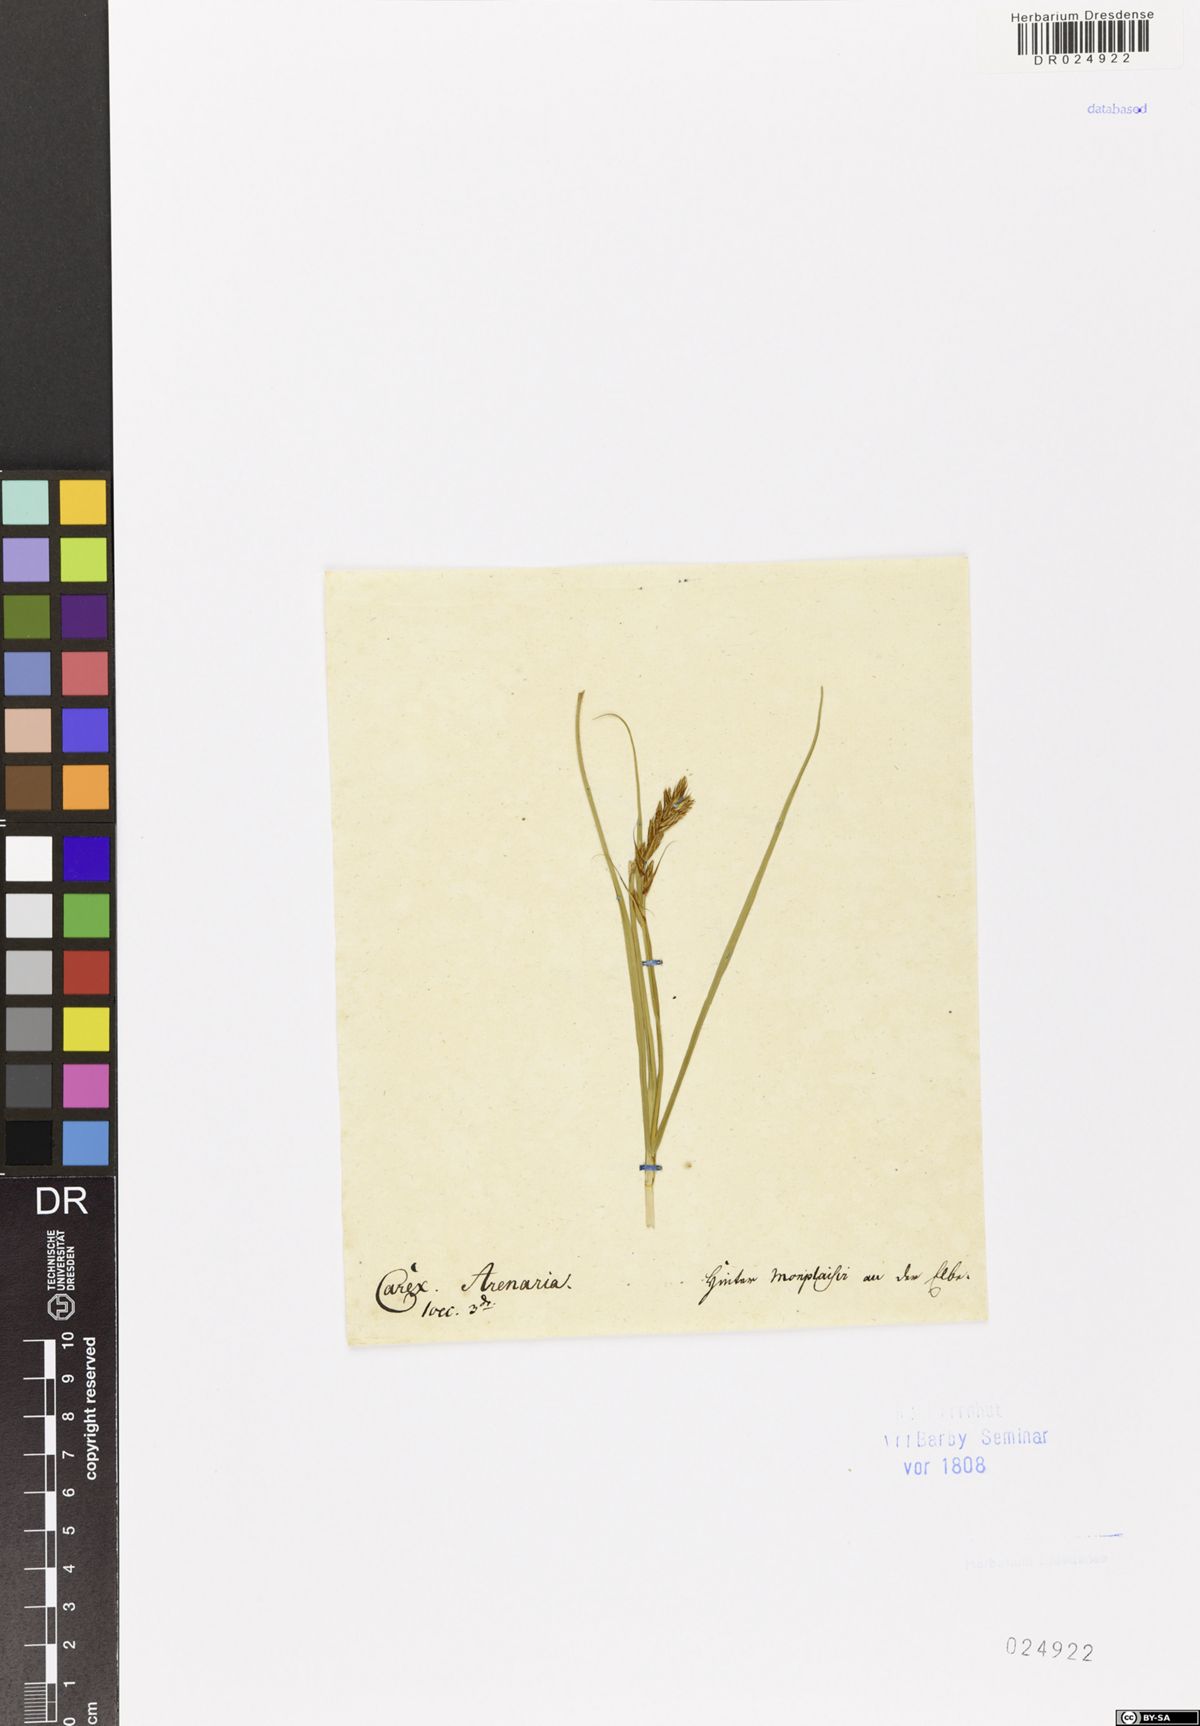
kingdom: Plantae
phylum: Tracheophyta
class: Liliopsida
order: Poales
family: Cyperaceae
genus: Carex
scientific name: Carex arenaria
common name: Sand sedge
